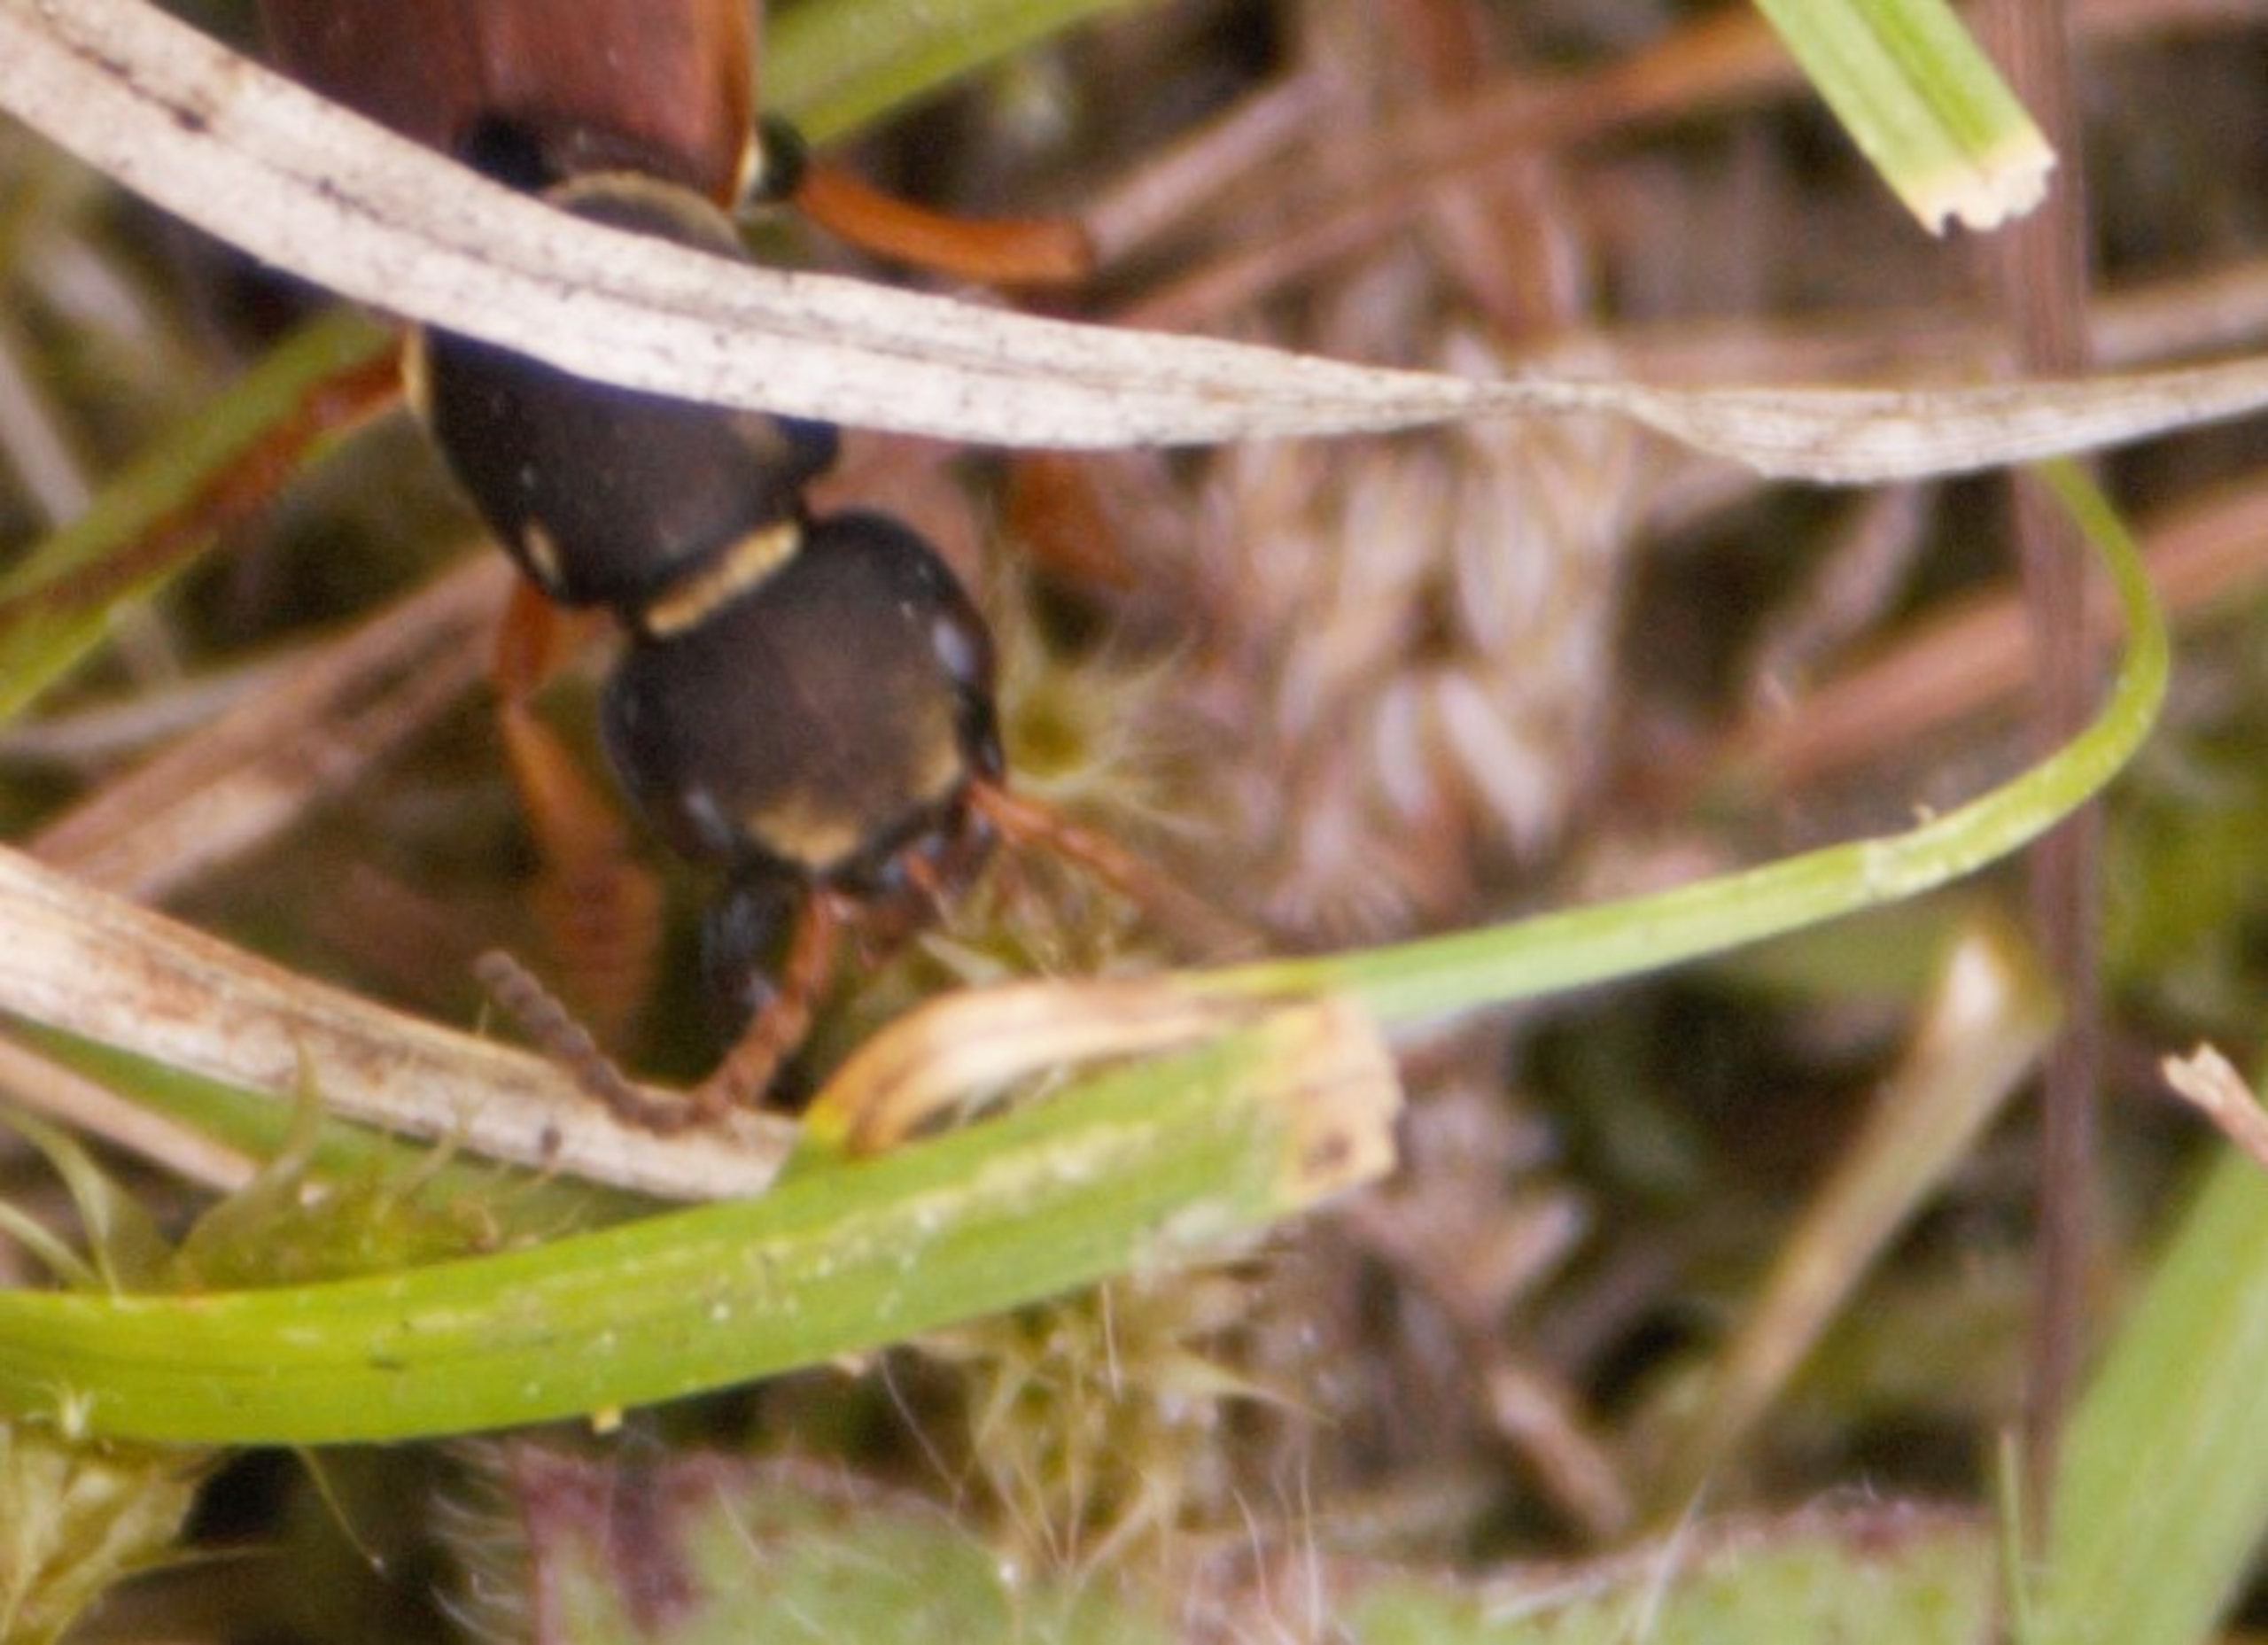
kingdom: Animalia
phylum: Arthropoda
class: Insecta
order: Coleoptera
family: Staphylinidae
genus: Staphylinus
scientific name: Staphylinus dimidiaticornis
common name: Sortkindet kejserrovbille
